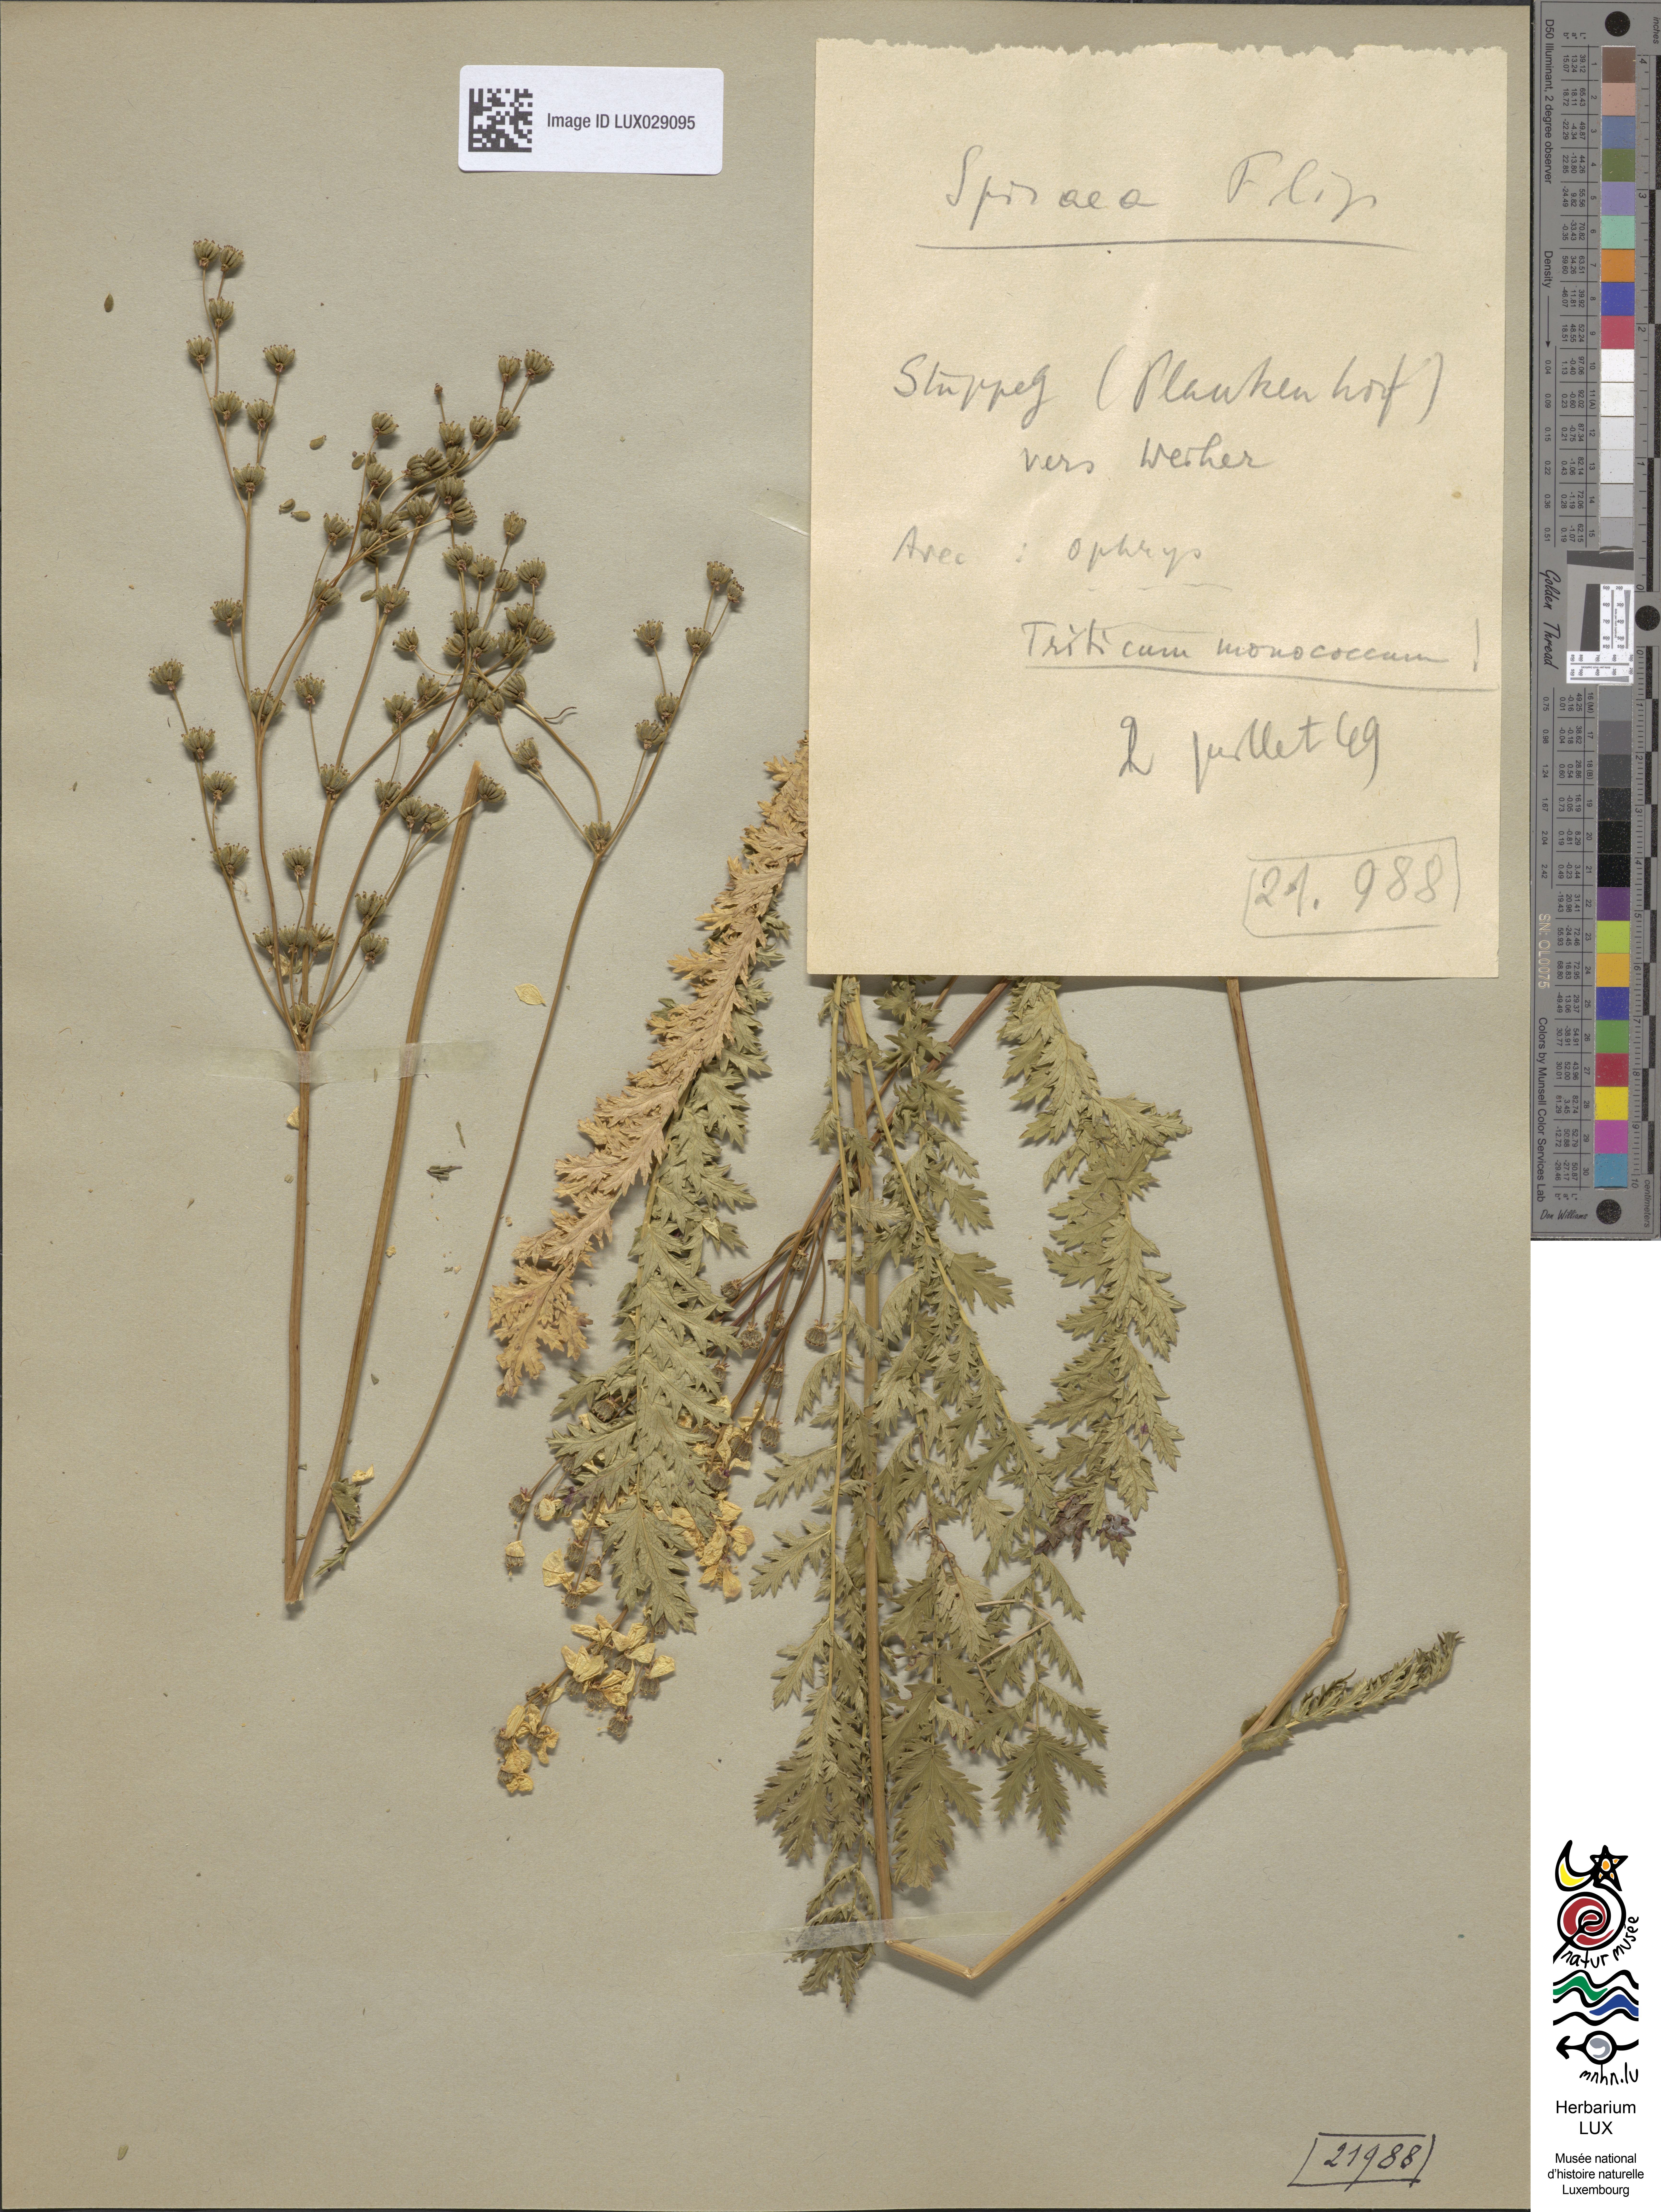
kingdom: Plantae
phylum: Tracheophyta
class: Magnoliopsida
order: Rosales
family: Rosaceae
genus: Filipendula
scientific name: Filipendula vulgaris
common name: Dropwort
